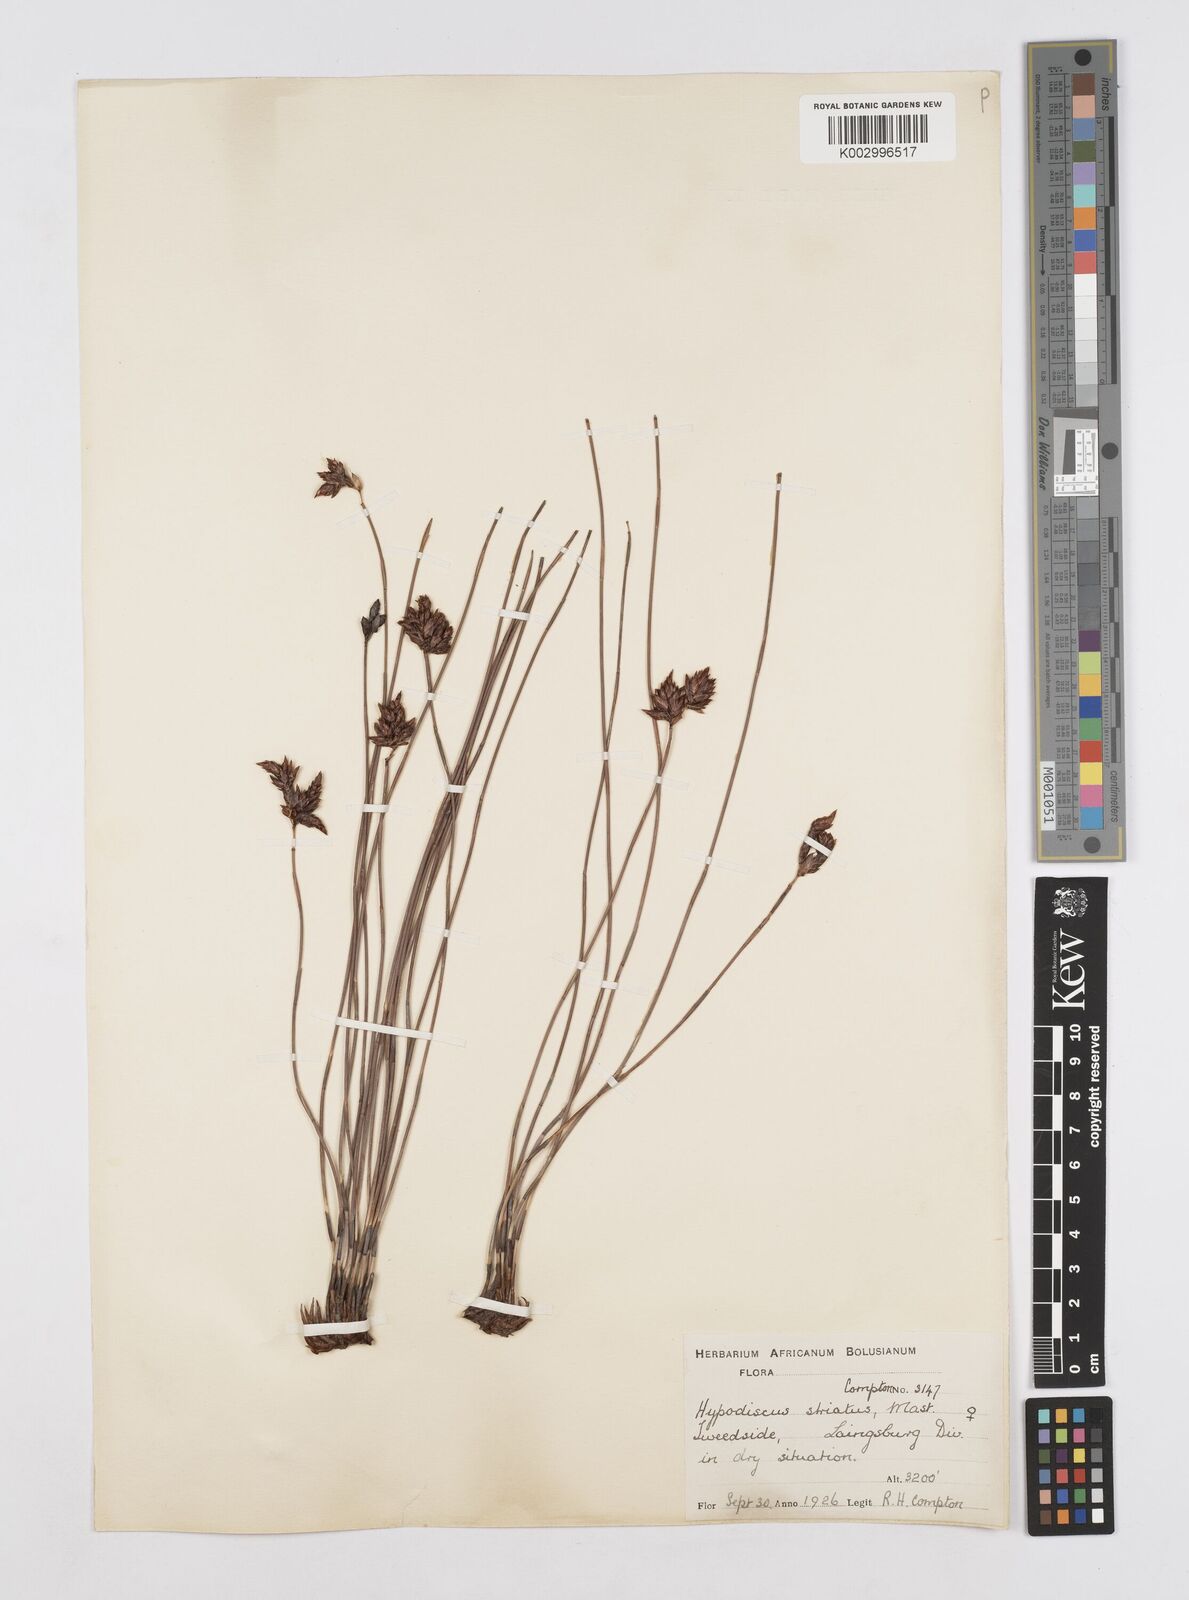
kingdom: Plantae
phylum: Tracheophyta
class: Liliopsida
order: Poales
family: Restionaceae
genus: Hypodiscus
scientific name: Hypodiscus striatus
